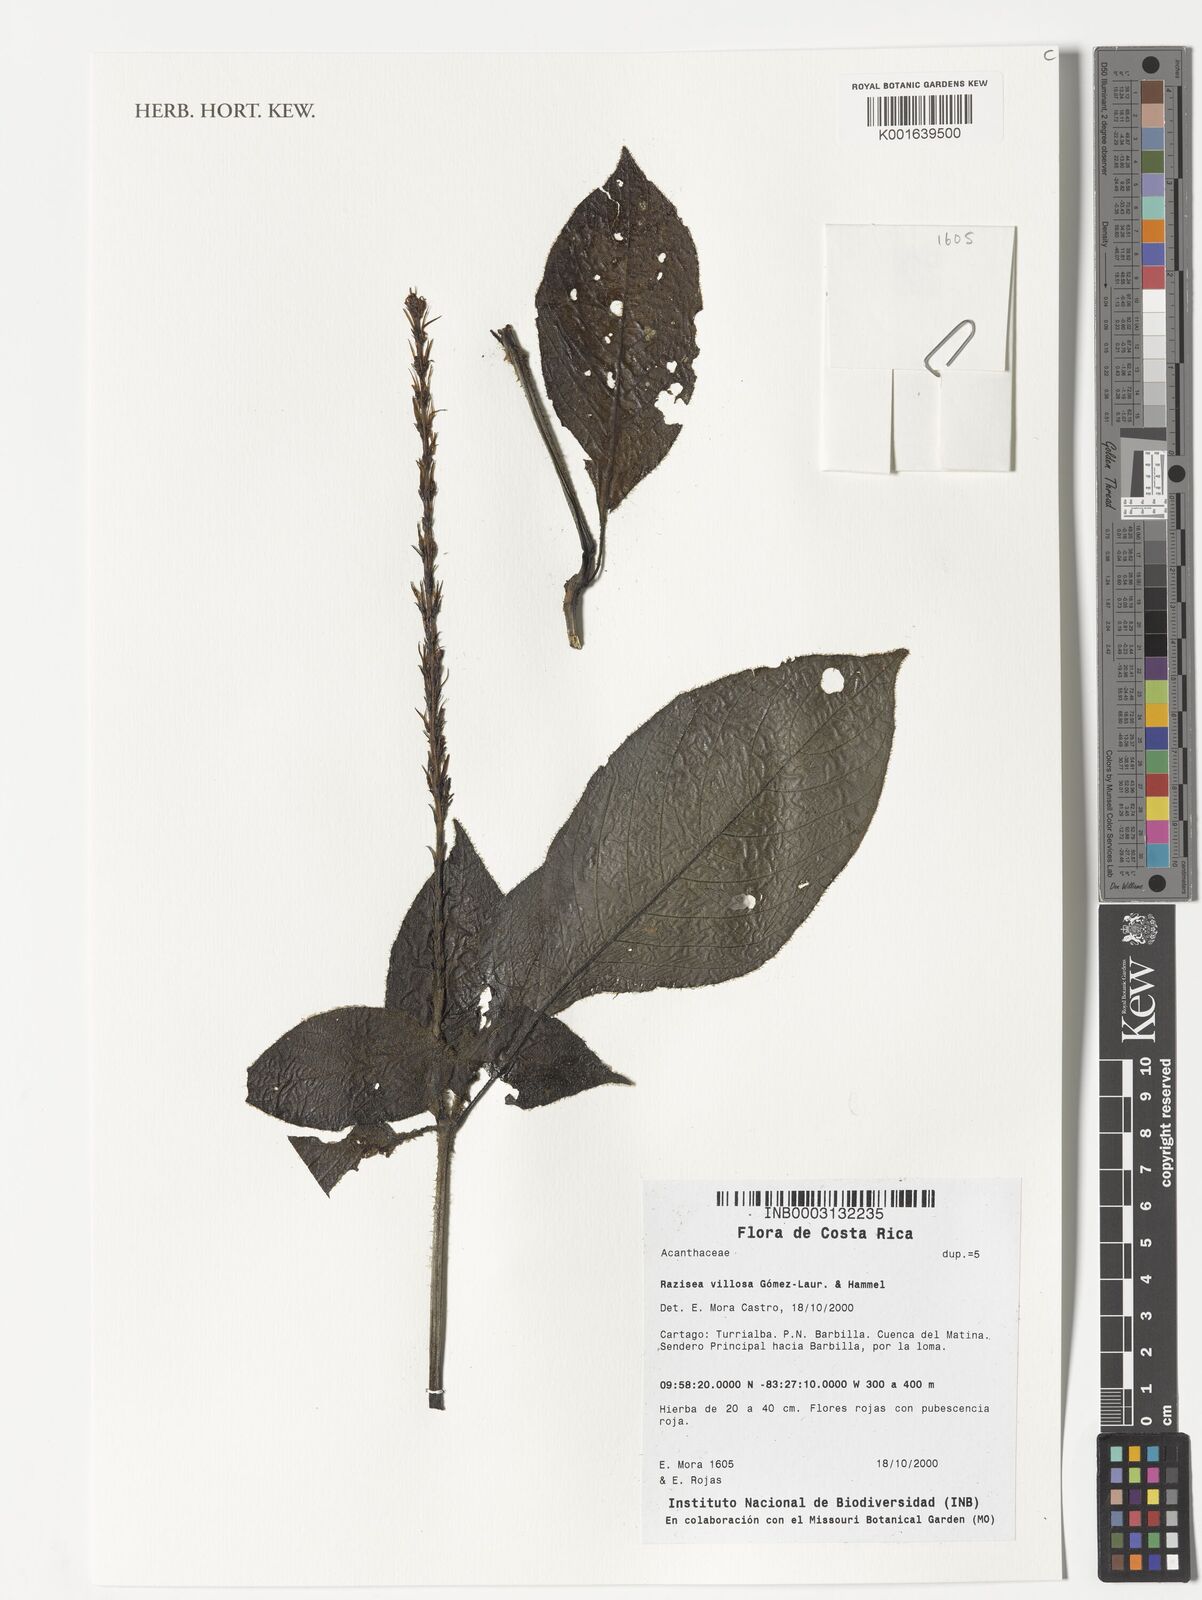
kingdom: Plantae
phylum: Tracheophyta
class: Magnoliopsida
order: Lamiales
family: Acanthaceae
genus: Stenostephanus
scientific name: Stenostephanus villosus
